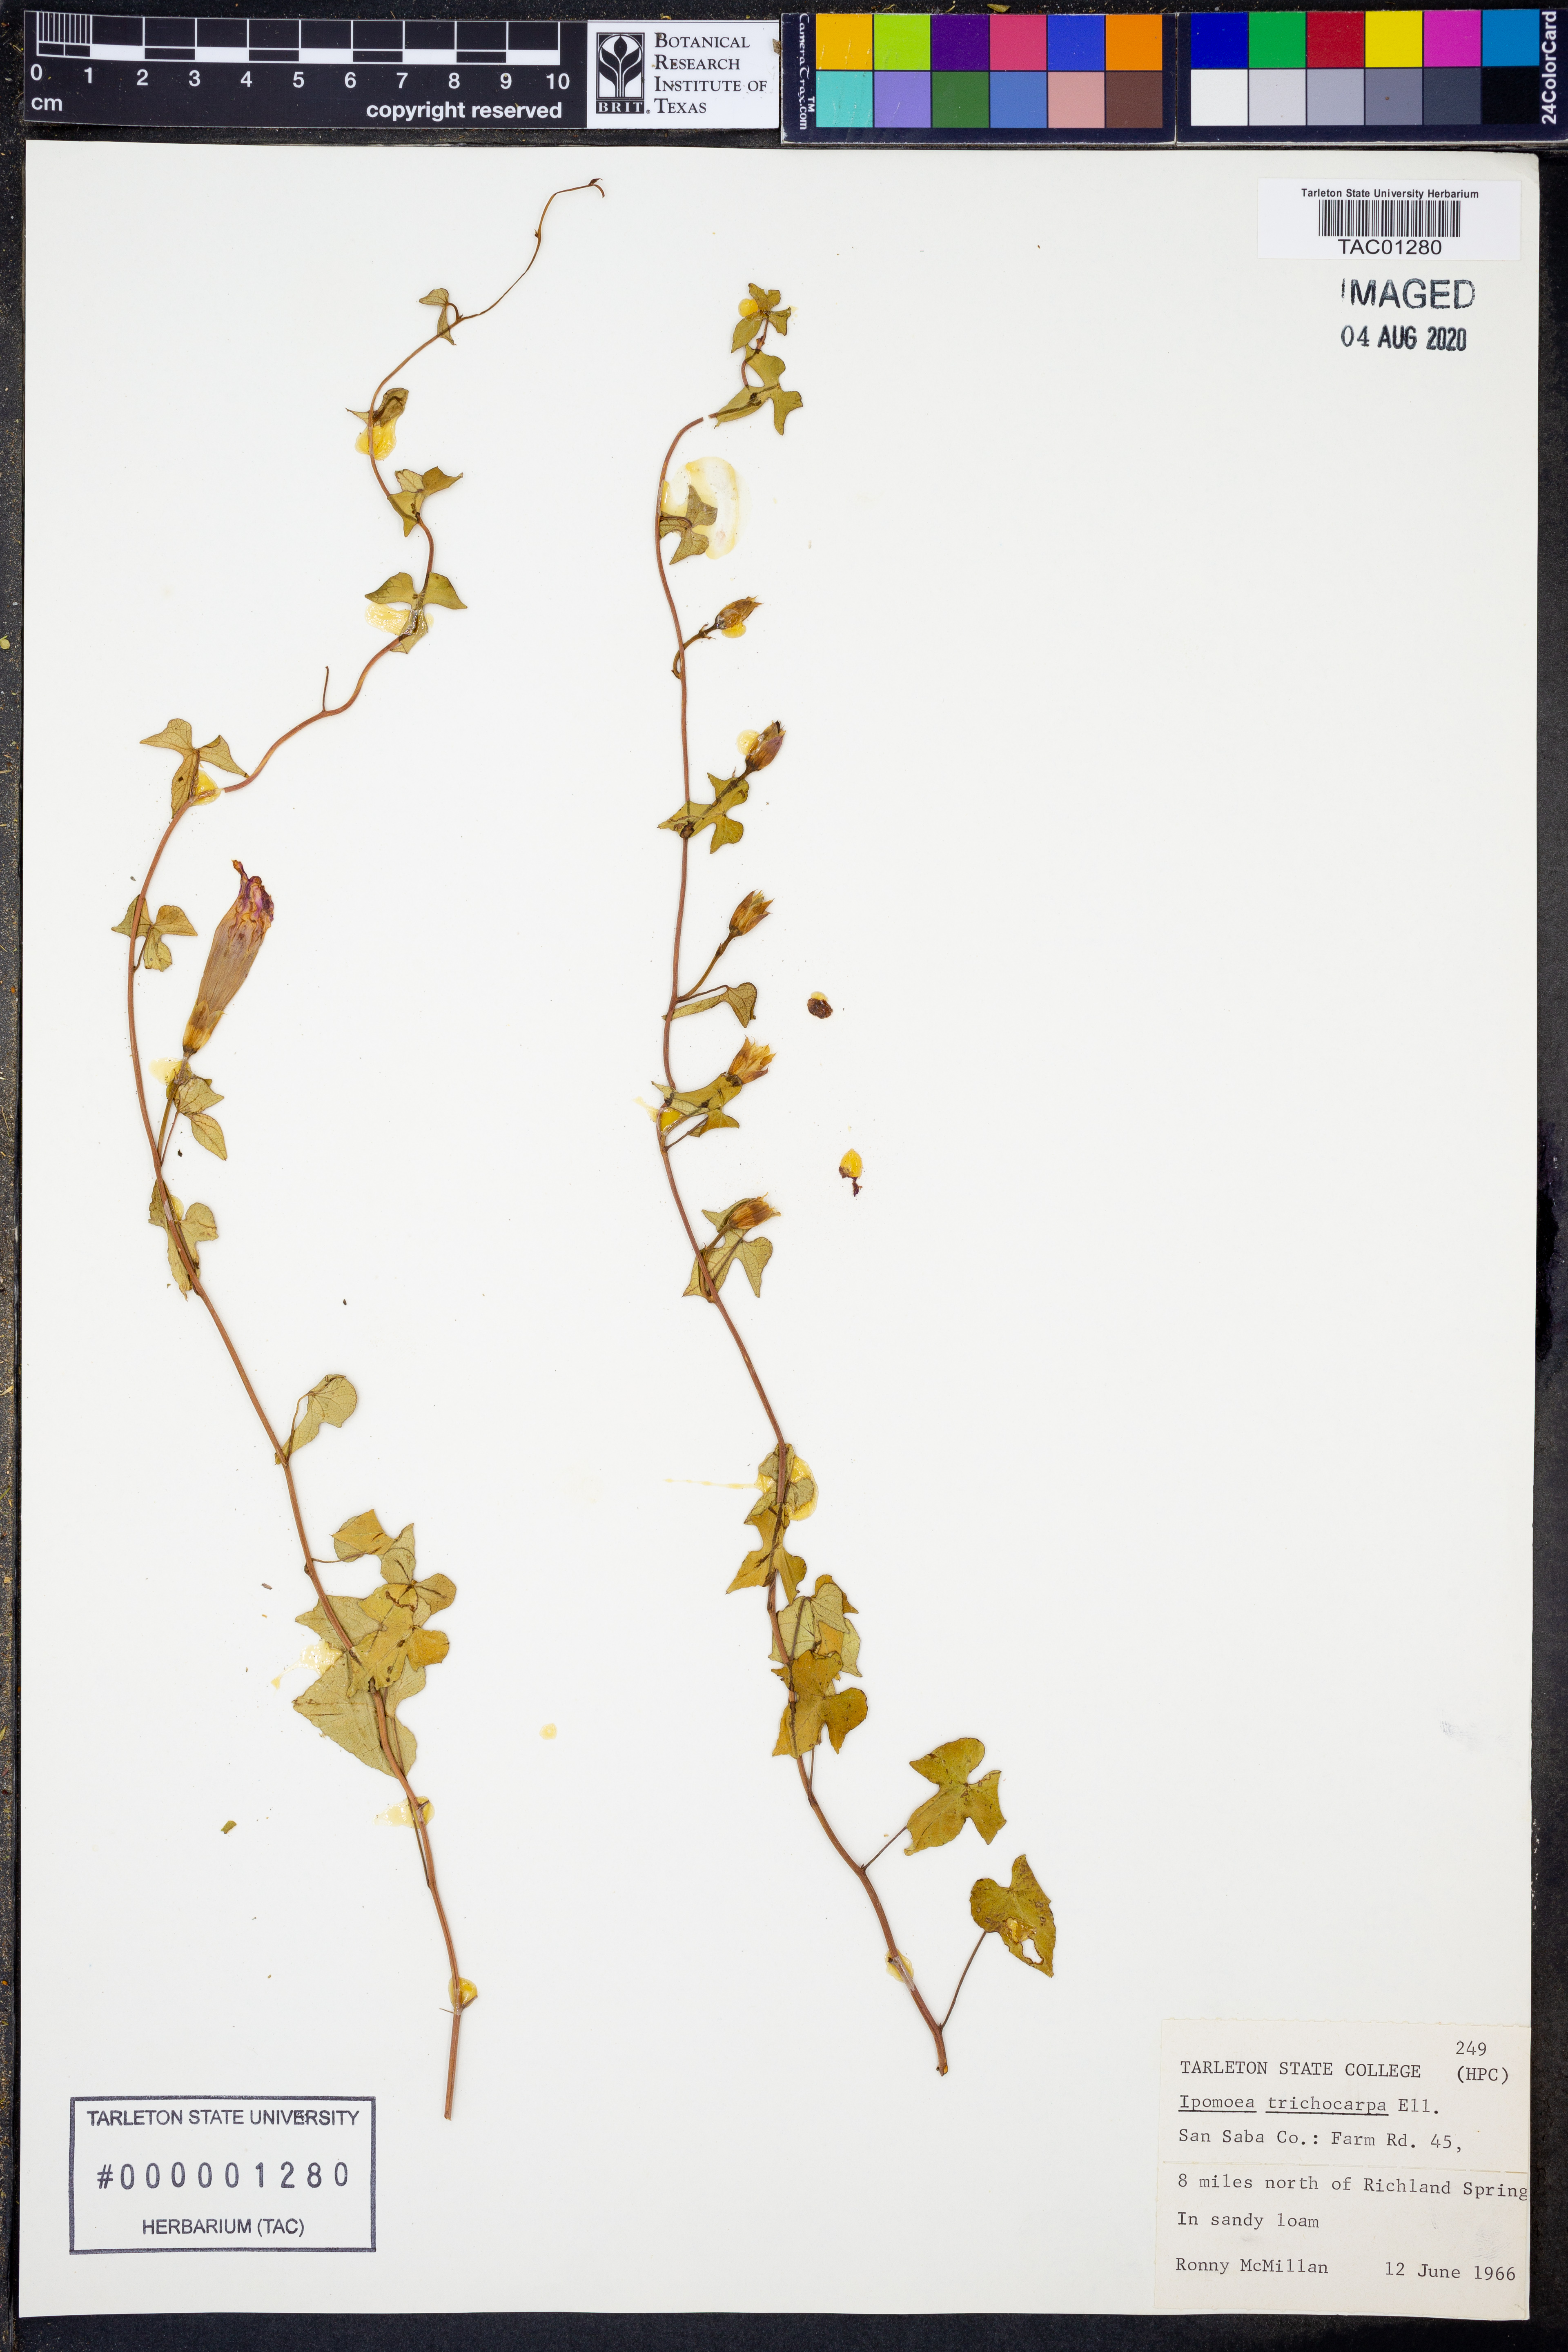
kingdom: Plantae
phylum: Tracheophyta
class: Magnoliopsida
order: Solanales
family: Convolvulaceae
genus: Ipomoea
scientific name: Ipomoea cordatotriloba
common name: Cotton morning glory
